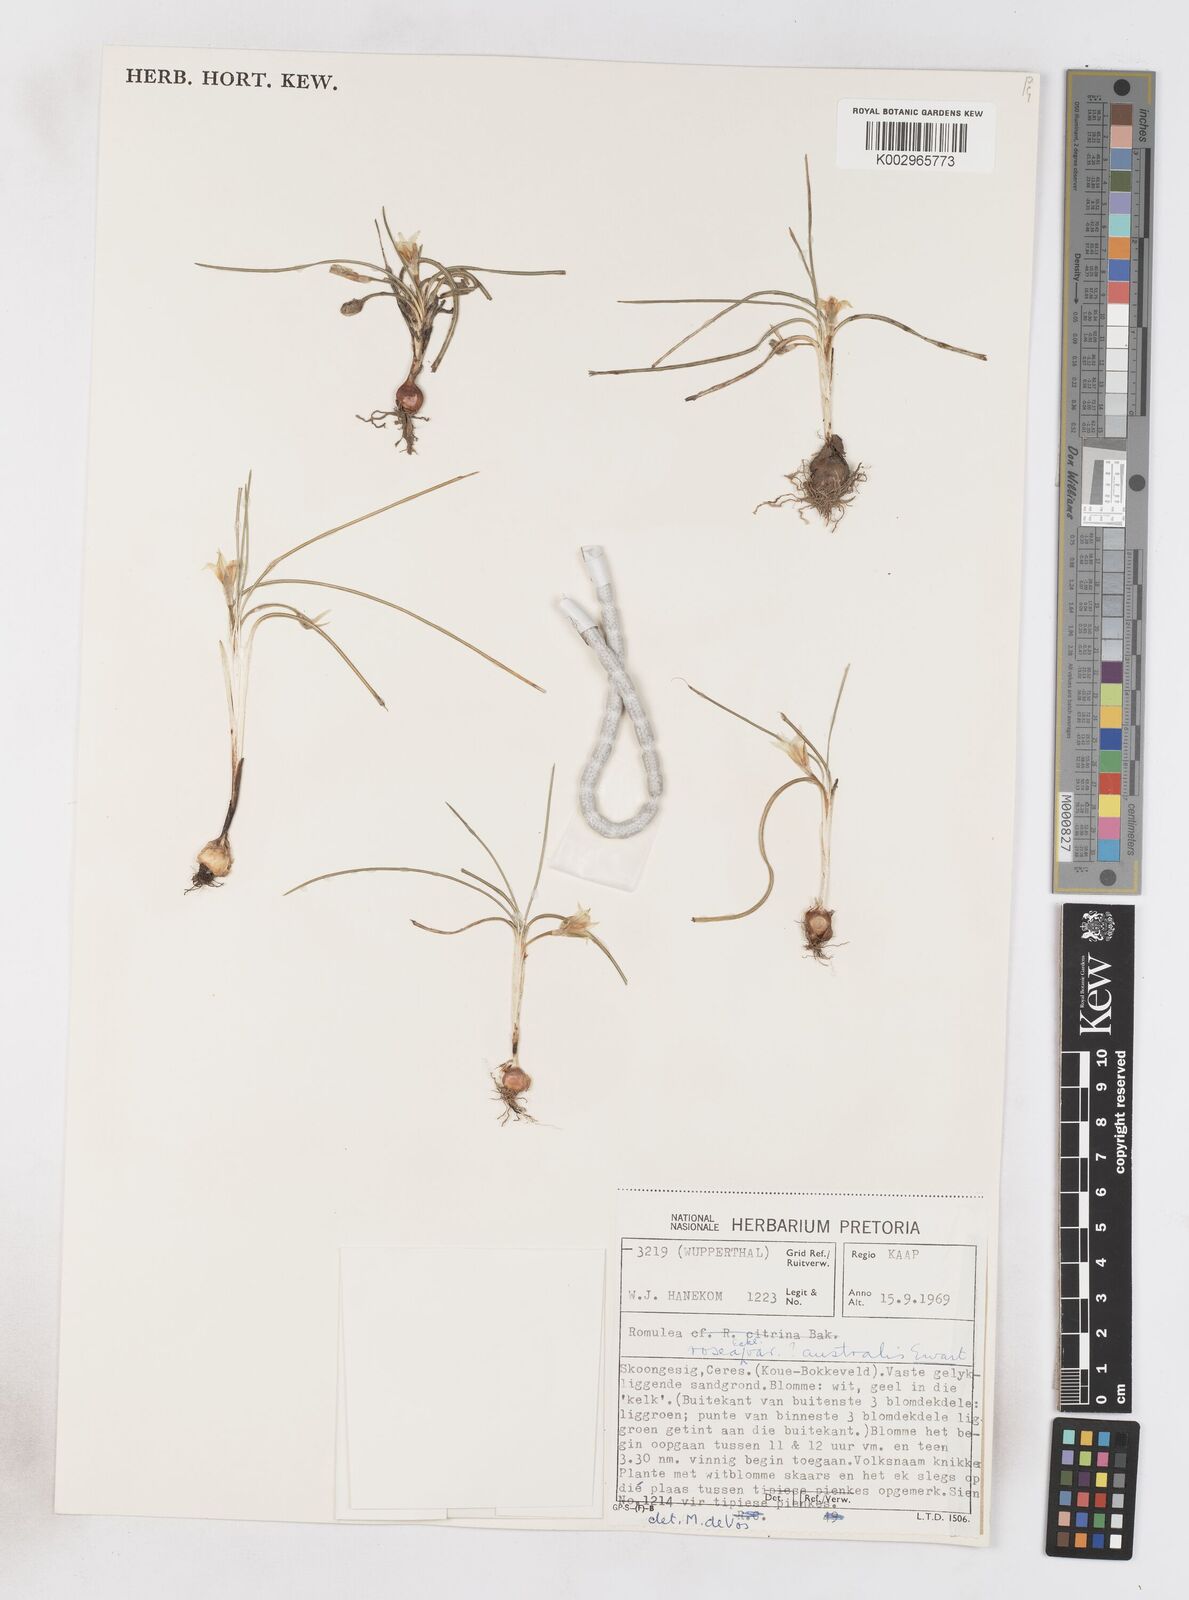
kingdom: Plantae
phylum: Tracheophyta
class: Liliopsida
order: Asparagales
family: Iridaceae
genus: Romulea
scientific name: Romulea rosea
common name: Oniongrass
